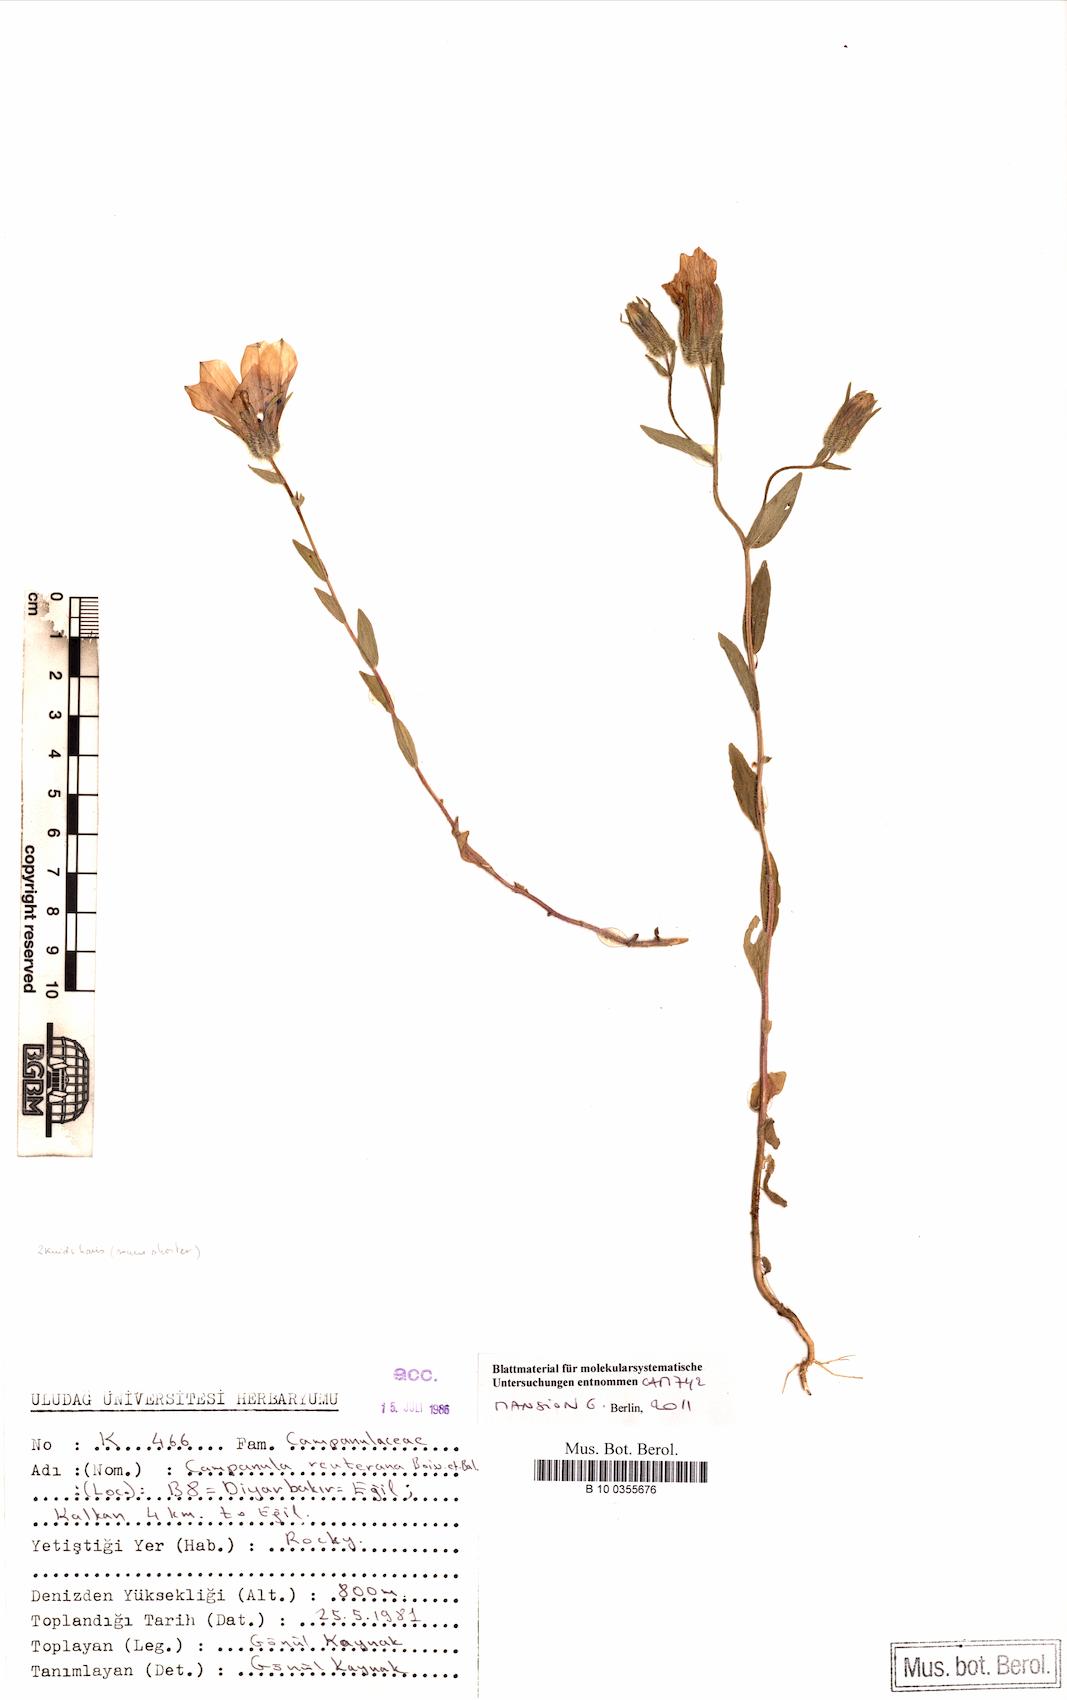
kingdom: Plantae
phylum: Tracheophyta
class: Magnoliopsida
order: Asterales
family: Campanulaceae
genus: Campanula
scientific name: Campanula reuteriana
